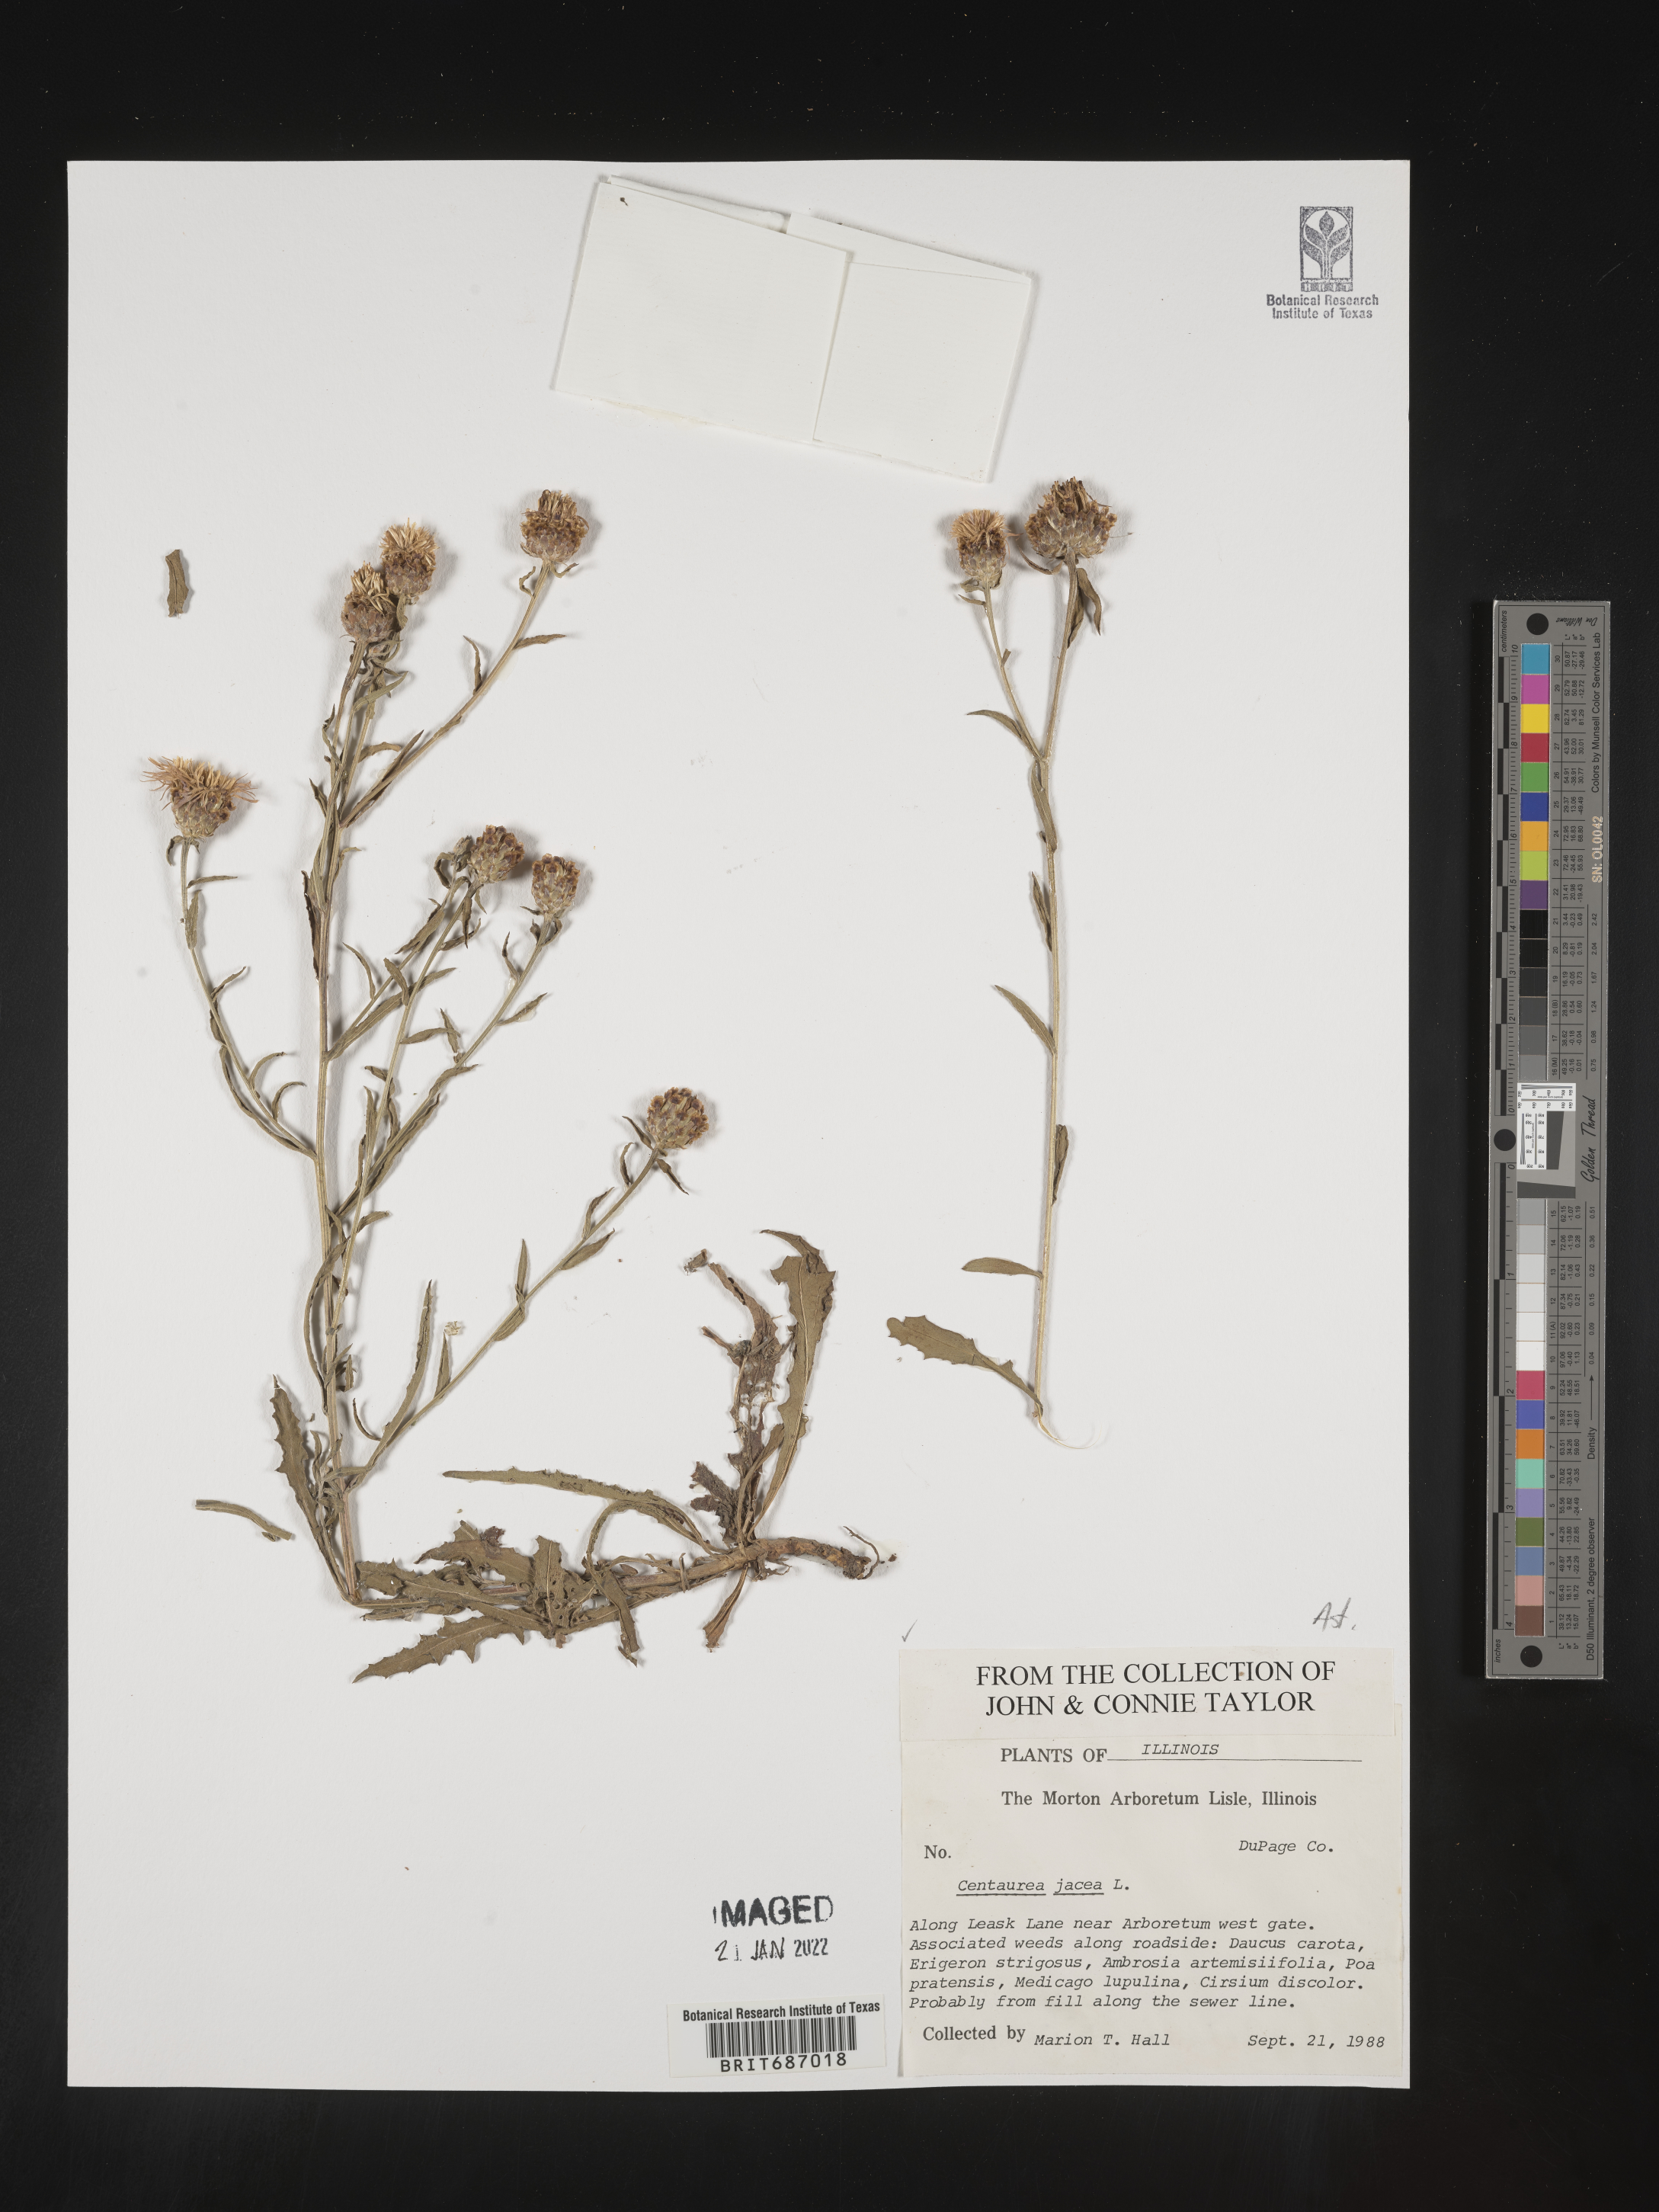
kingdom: Plantae
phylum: Tracheophyta
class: Magnoliopsida
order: Asterales
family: Asteraceae
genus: Centaurea
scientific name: Centaurea jacea
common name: Brown knapweed
